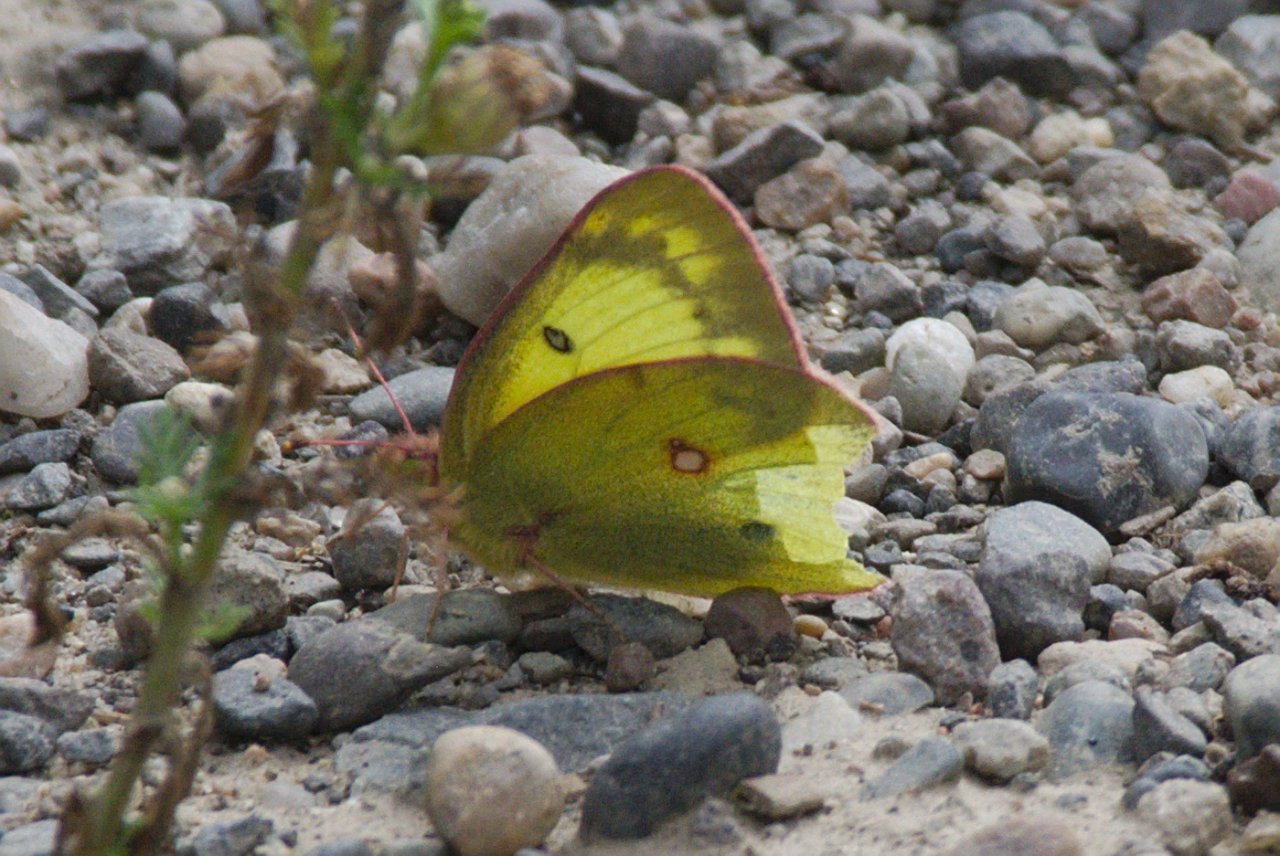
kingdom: Animalia
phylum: Arthropoda
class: Insecta
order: Lepidoptera
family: Pieridae
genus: Colias
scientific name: Colias philodice
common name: Clouded Sulphur
